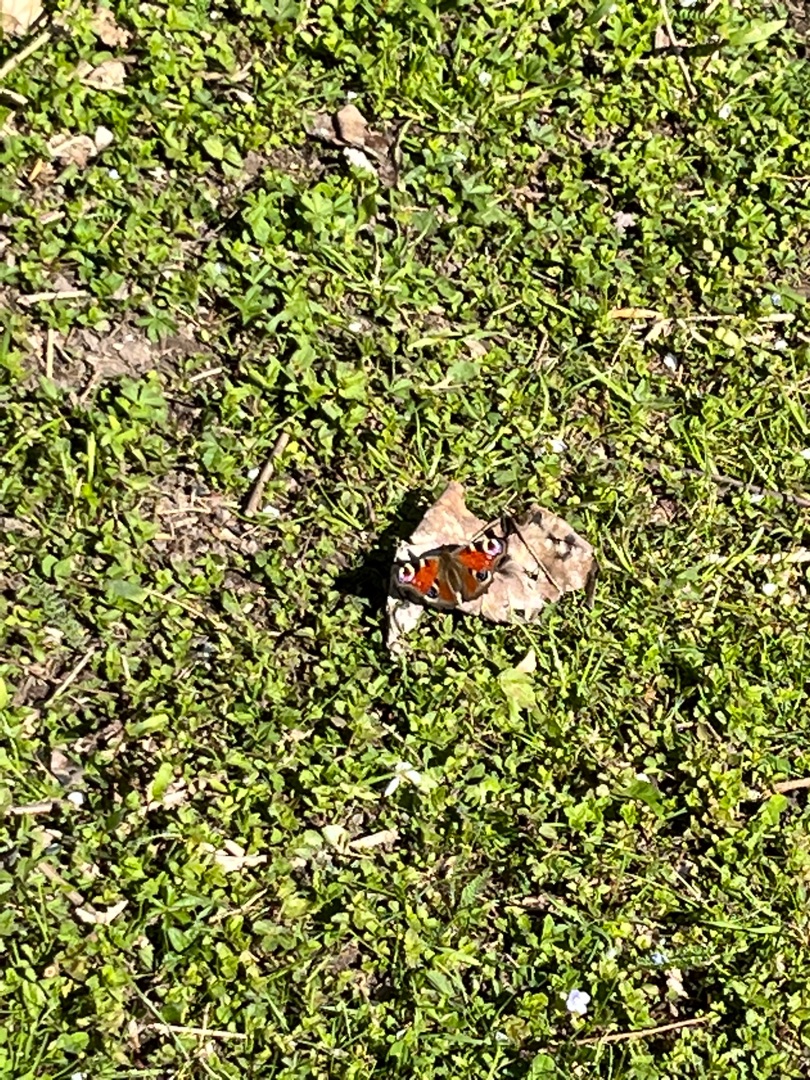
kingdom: Animalia
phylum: Arthropoda
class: Insecta
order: Lepidoptera
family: Nymphalidae
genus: Aglais
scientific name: Aglais io
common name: Dagpåfugleøje
